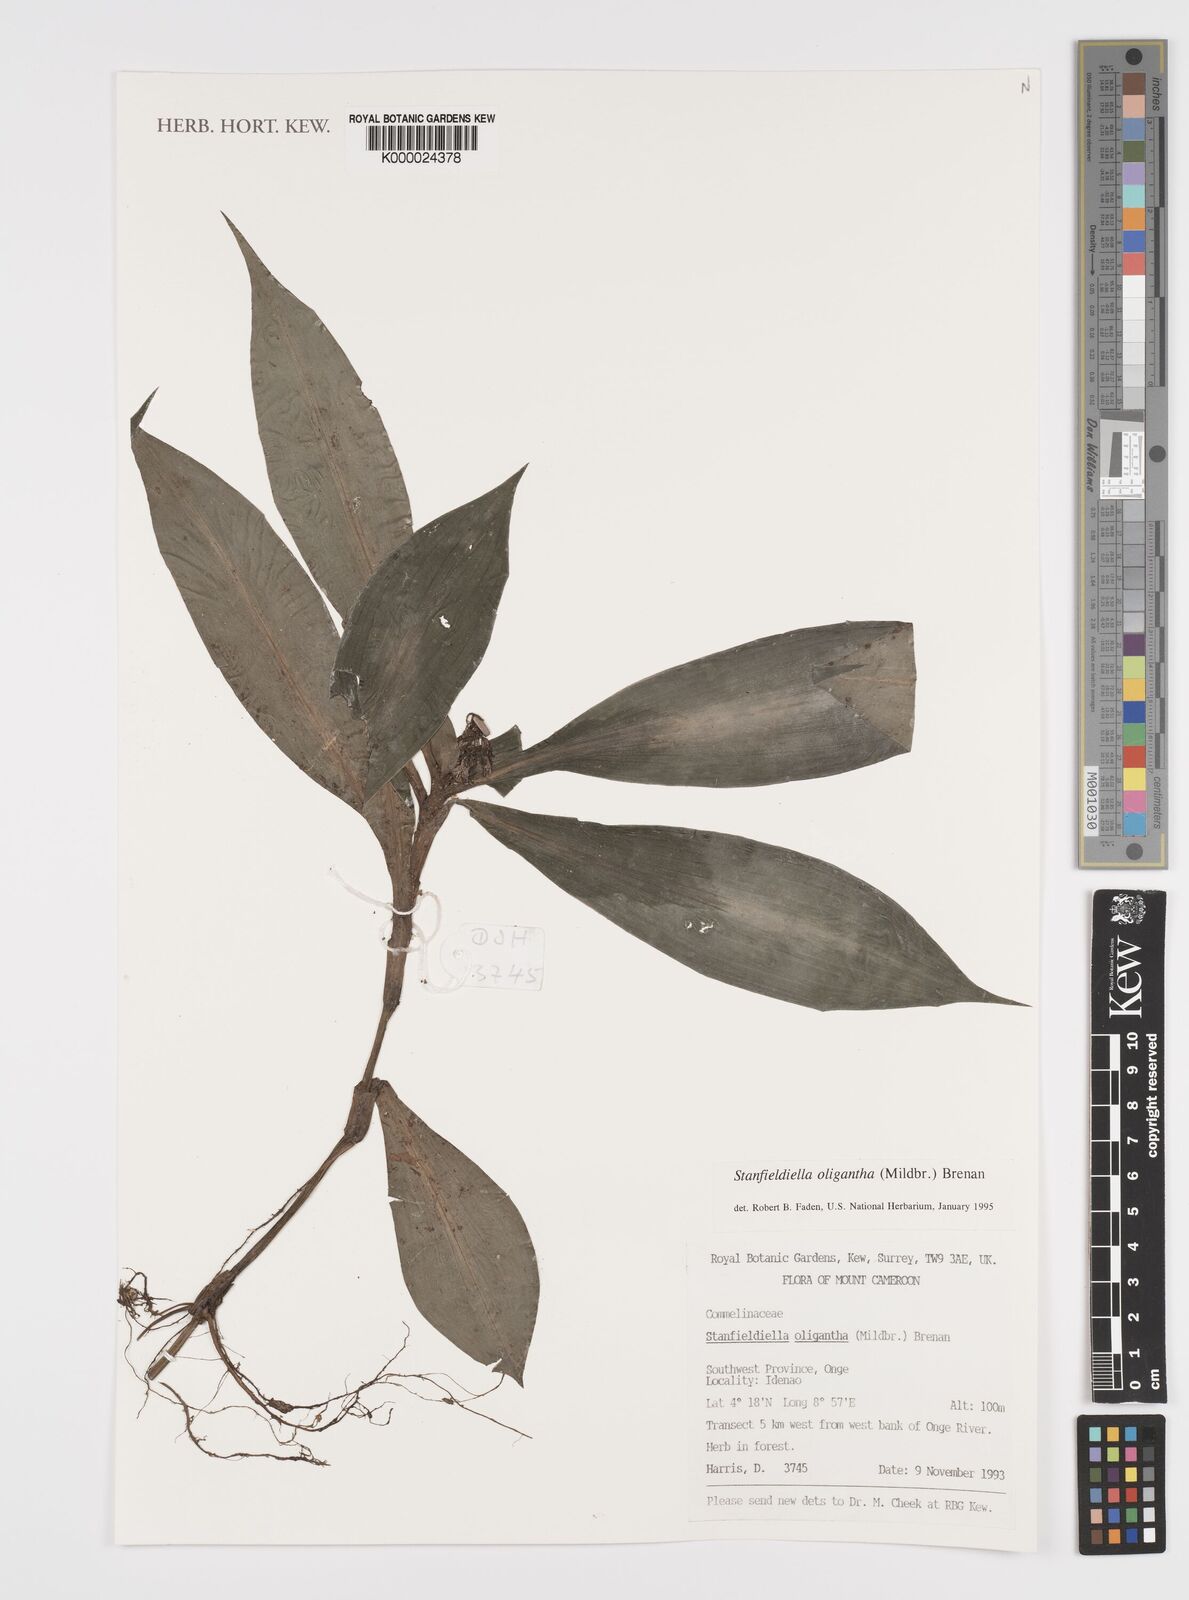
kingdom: Plantae
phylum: Tracheophyta
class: Liliopsida
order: Commelinales
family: Commelinaceae
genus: Stanfieldiella
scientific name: Stanfieldiella oligantha
